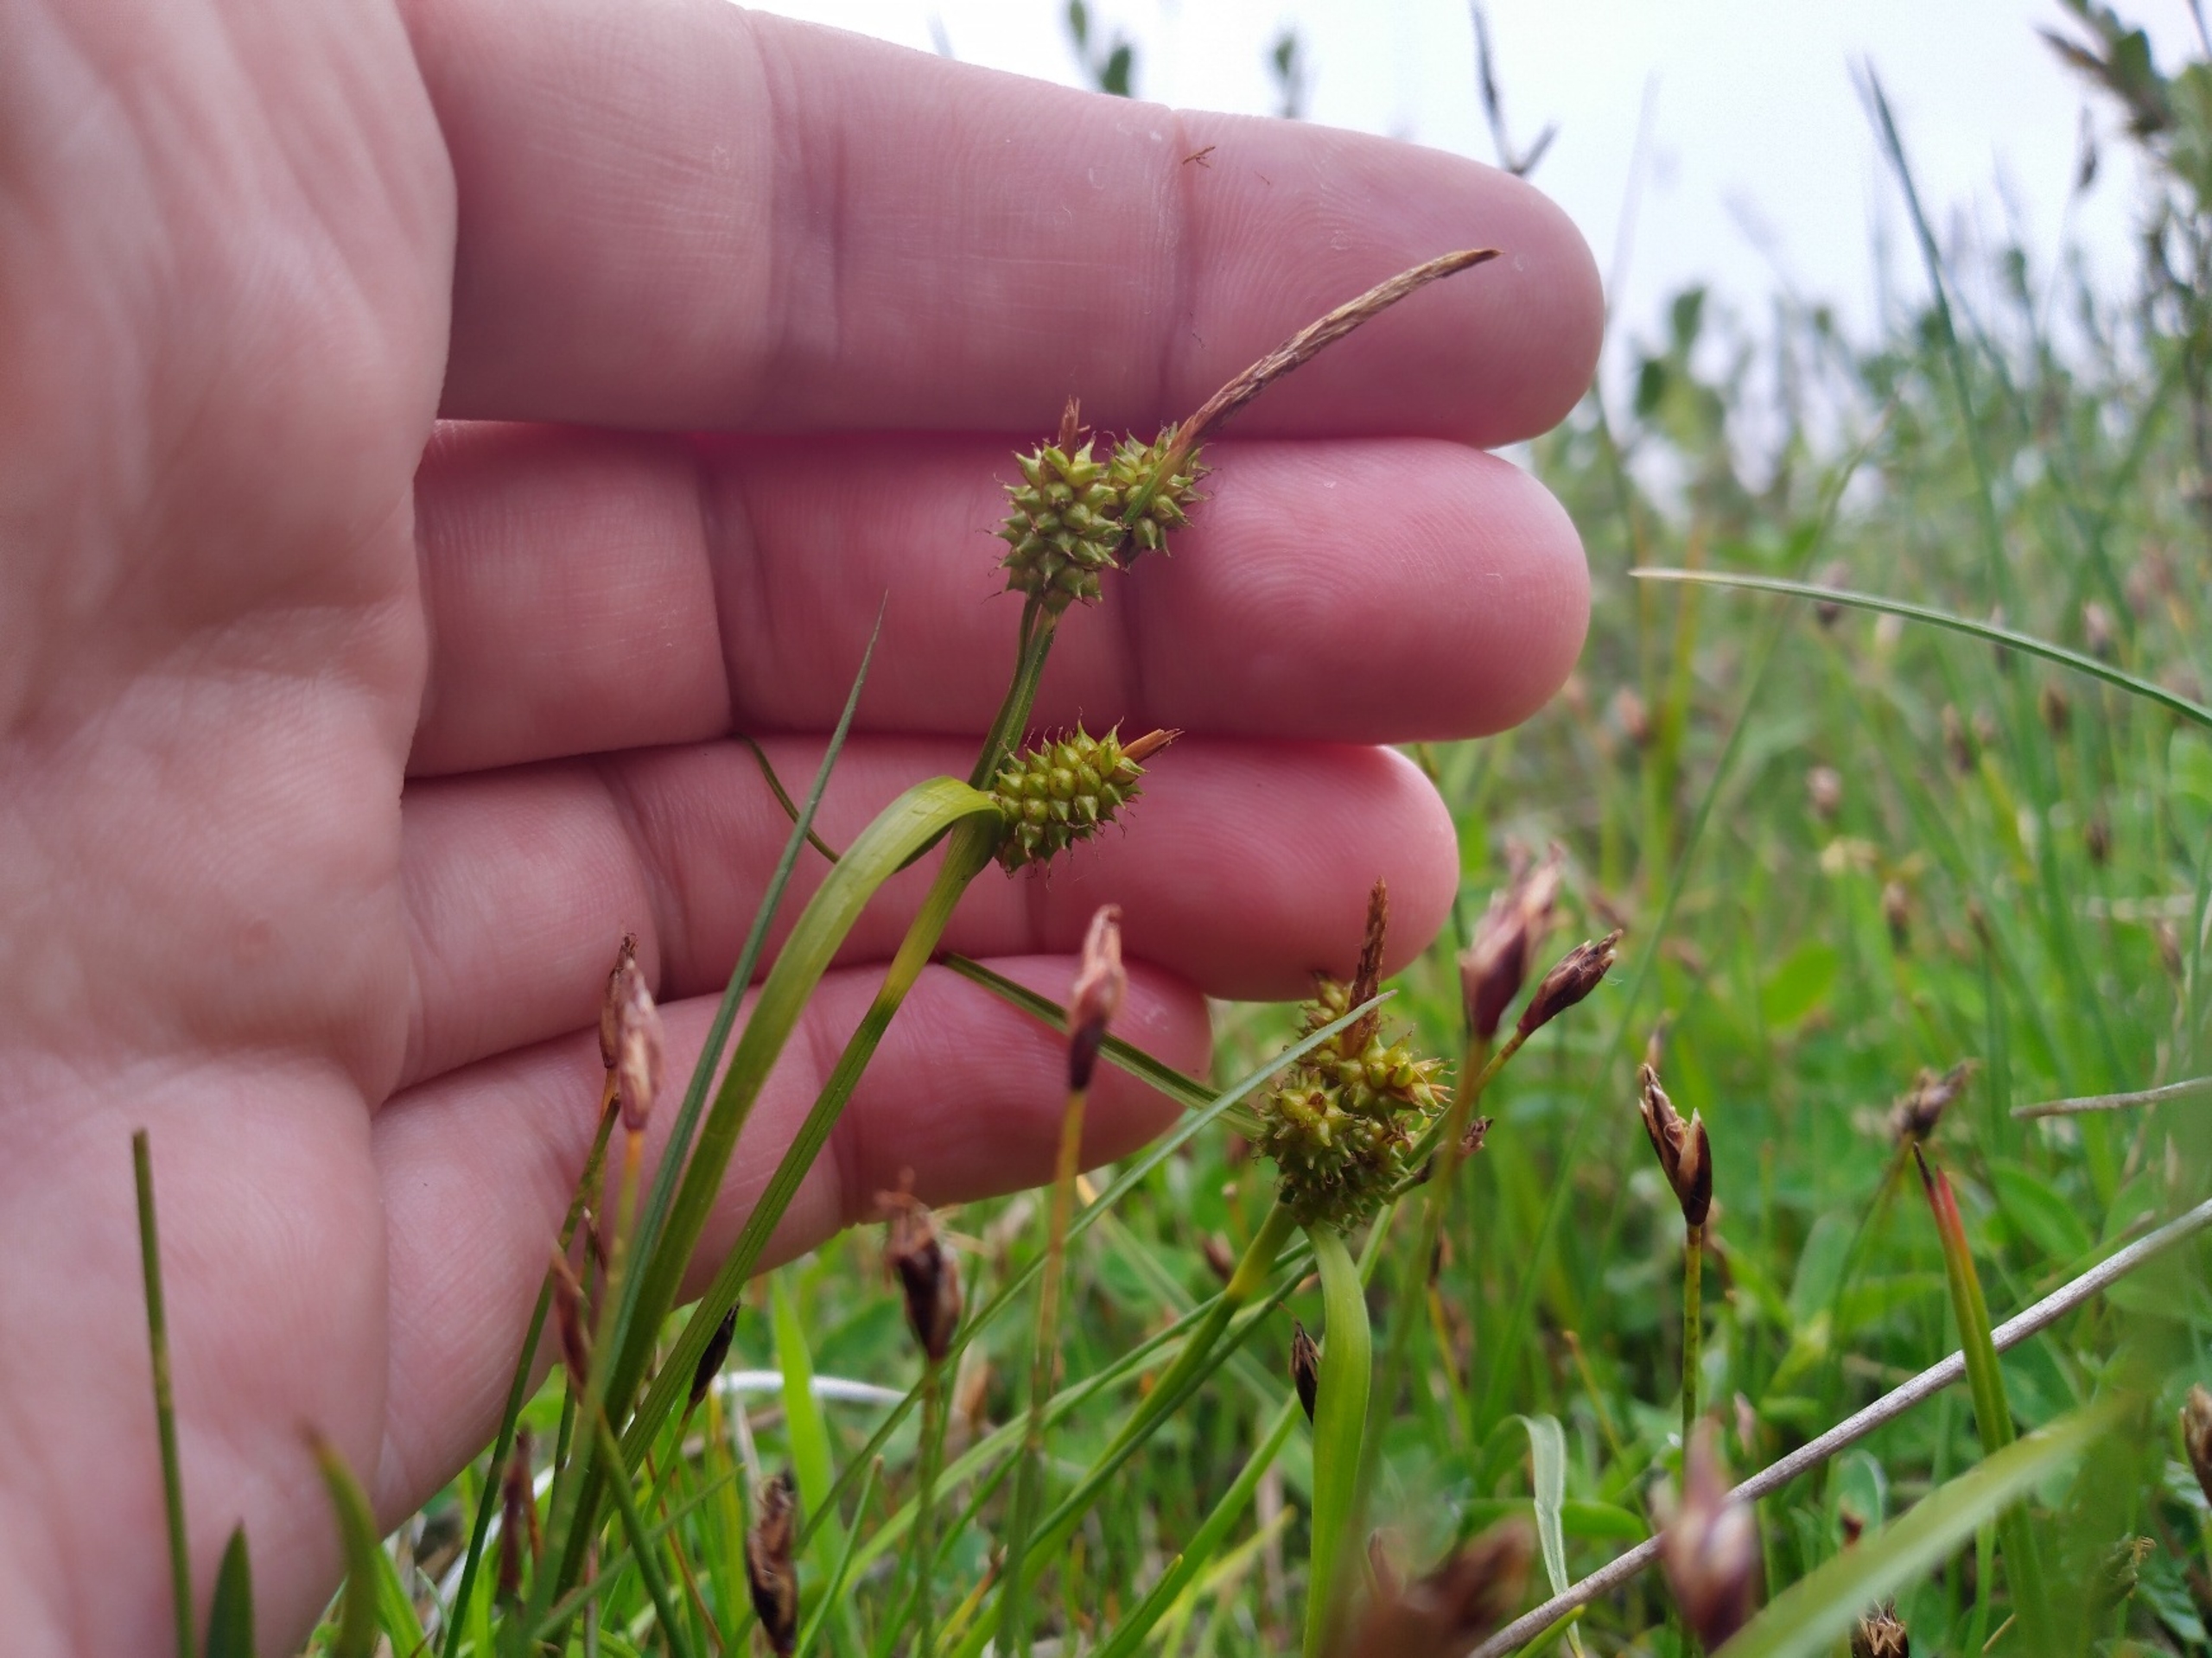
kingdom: Plantae
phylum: Tracheophyta
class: Liliopsida
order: Poales
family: Cyperaceae
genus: Carex
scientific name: Carex oederi
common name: Høst-star
